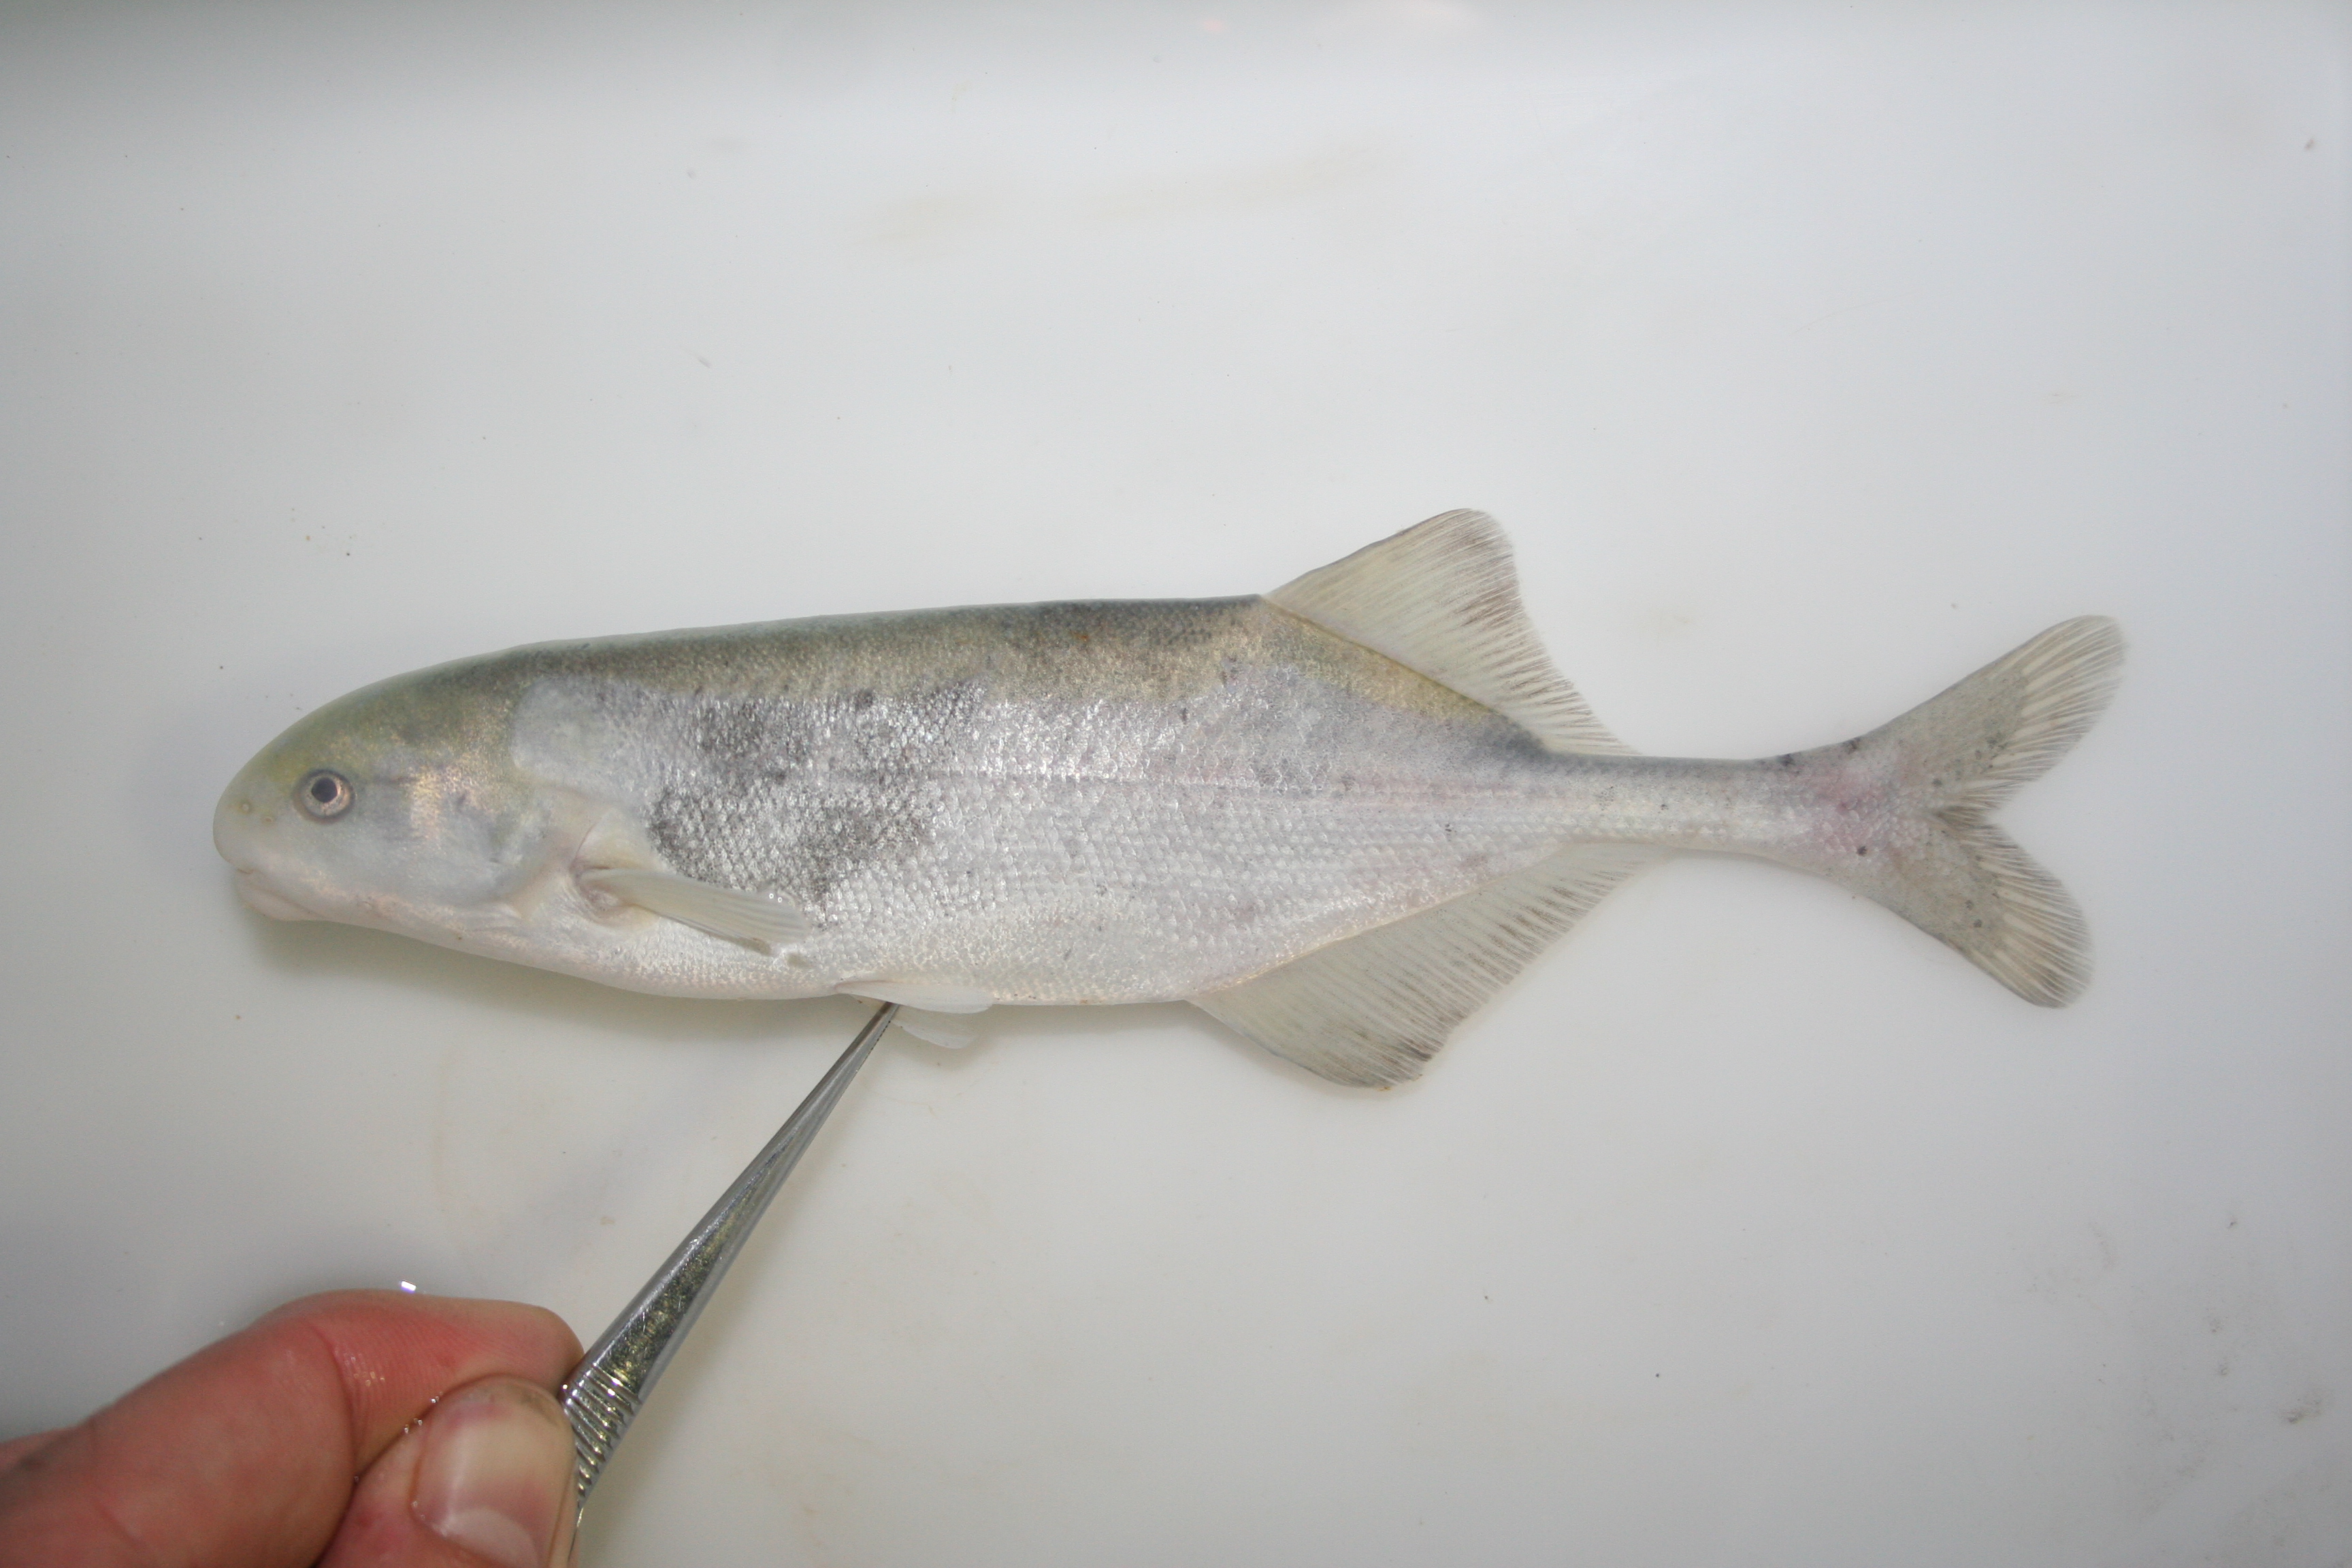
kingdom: Animalia
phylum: Chordata
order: Osteoglossiformes
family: Mormyridae
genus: Hippopotamyrus
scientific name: Hippopotamyrus
